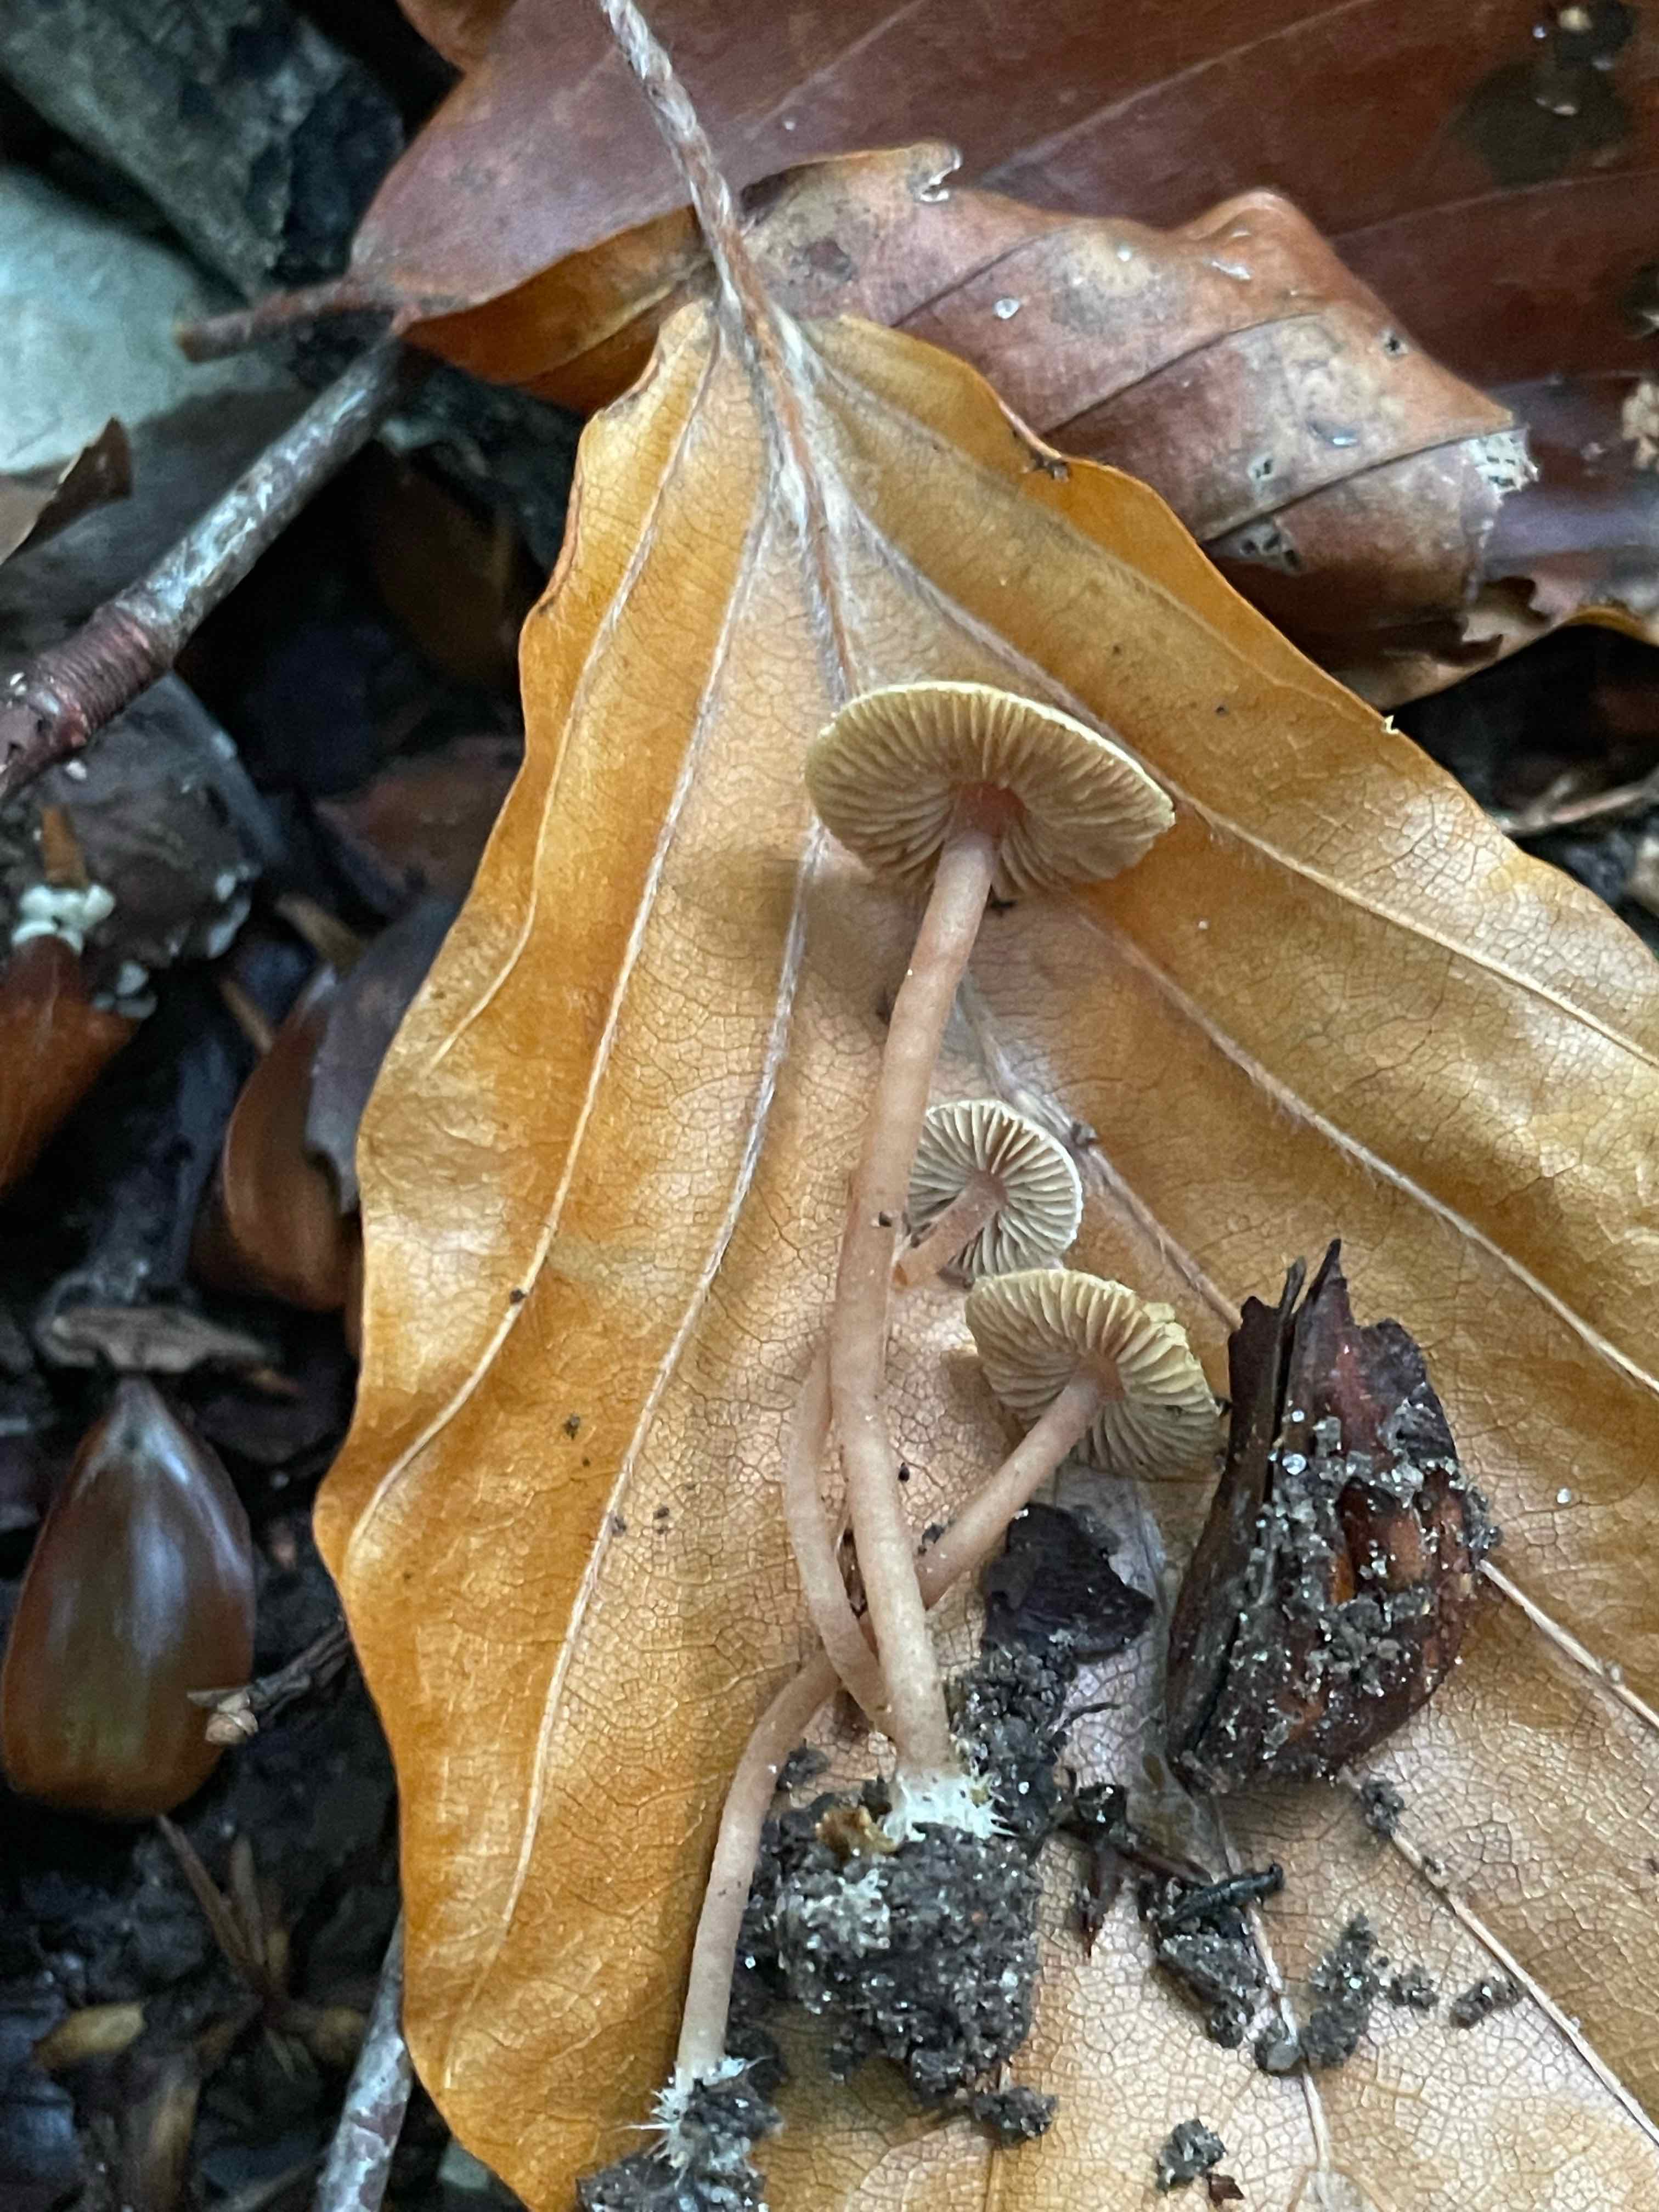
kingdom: Fungi
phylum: Basidiomycota
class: Agaricomycetes
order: Agaricales
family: Inocybaceae
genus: Inocybe
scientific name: Inocybe petiginosa
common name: liden trævlhat
